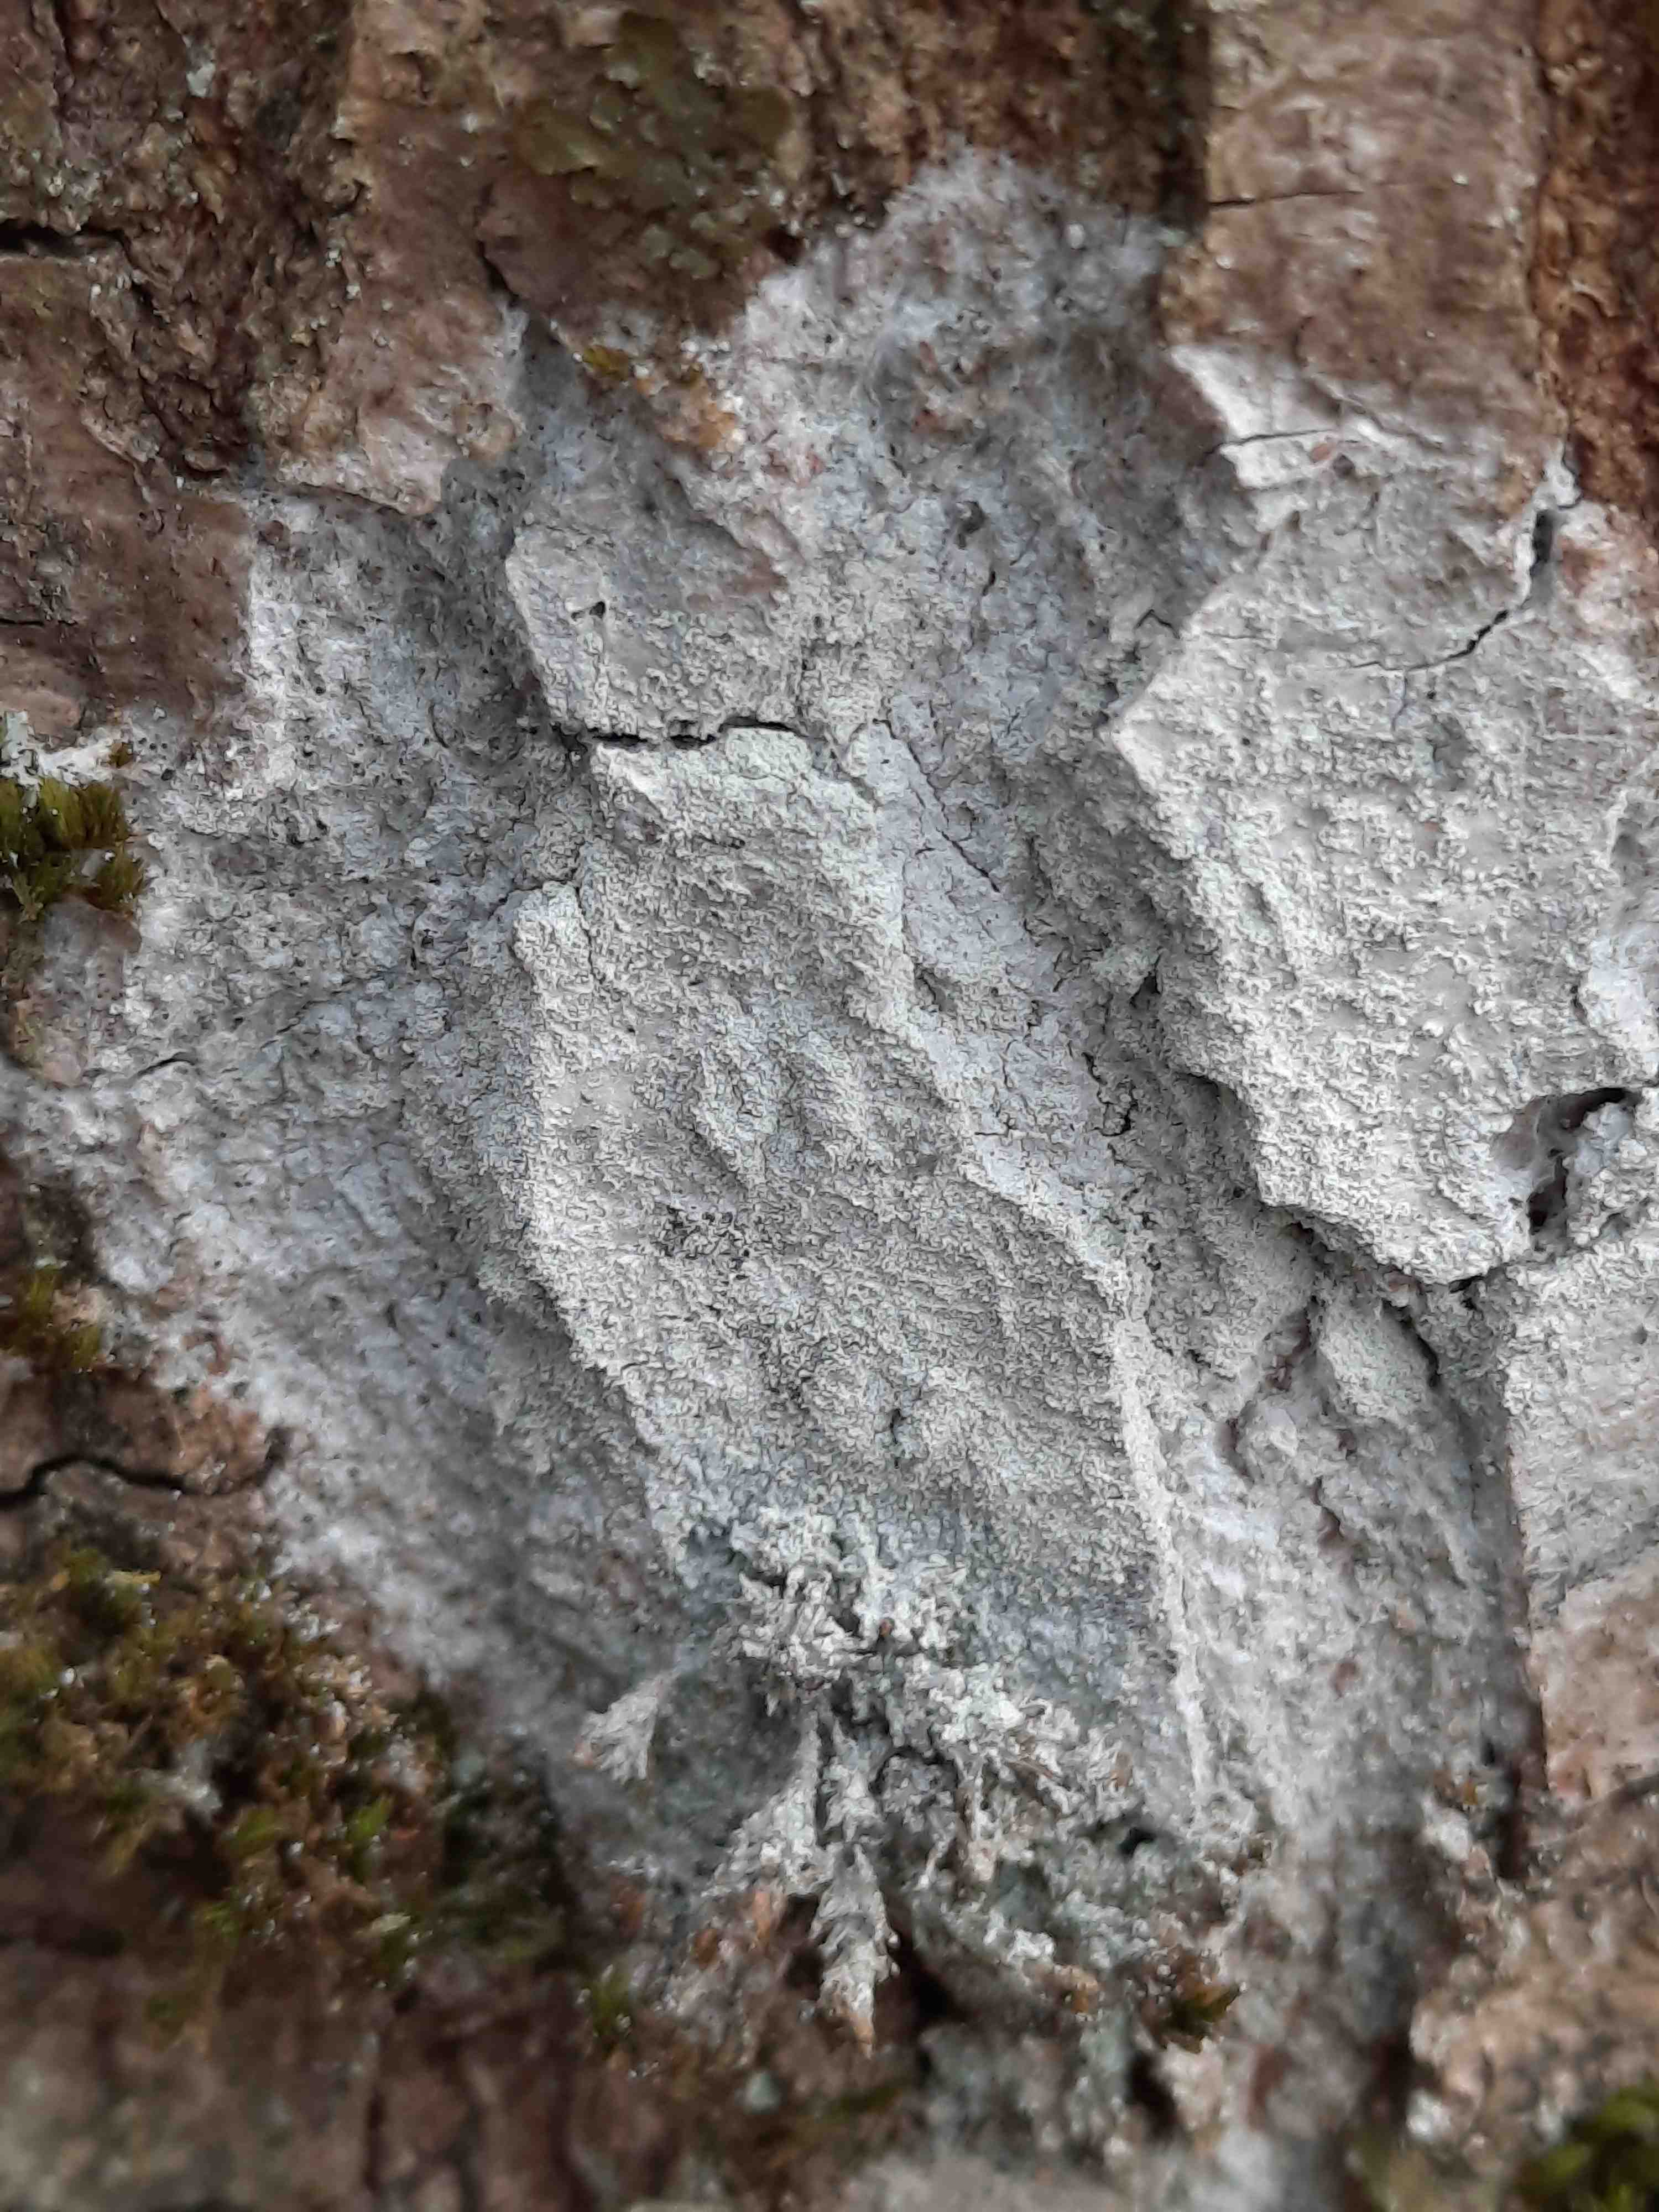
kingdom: Fungi
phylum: Ascomycota
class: Lecanoromycetes
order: Ostropales
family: Phlyctidaceae
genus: Phlyctis
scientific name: Phlyctis argena
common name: almindelig sølvlav
